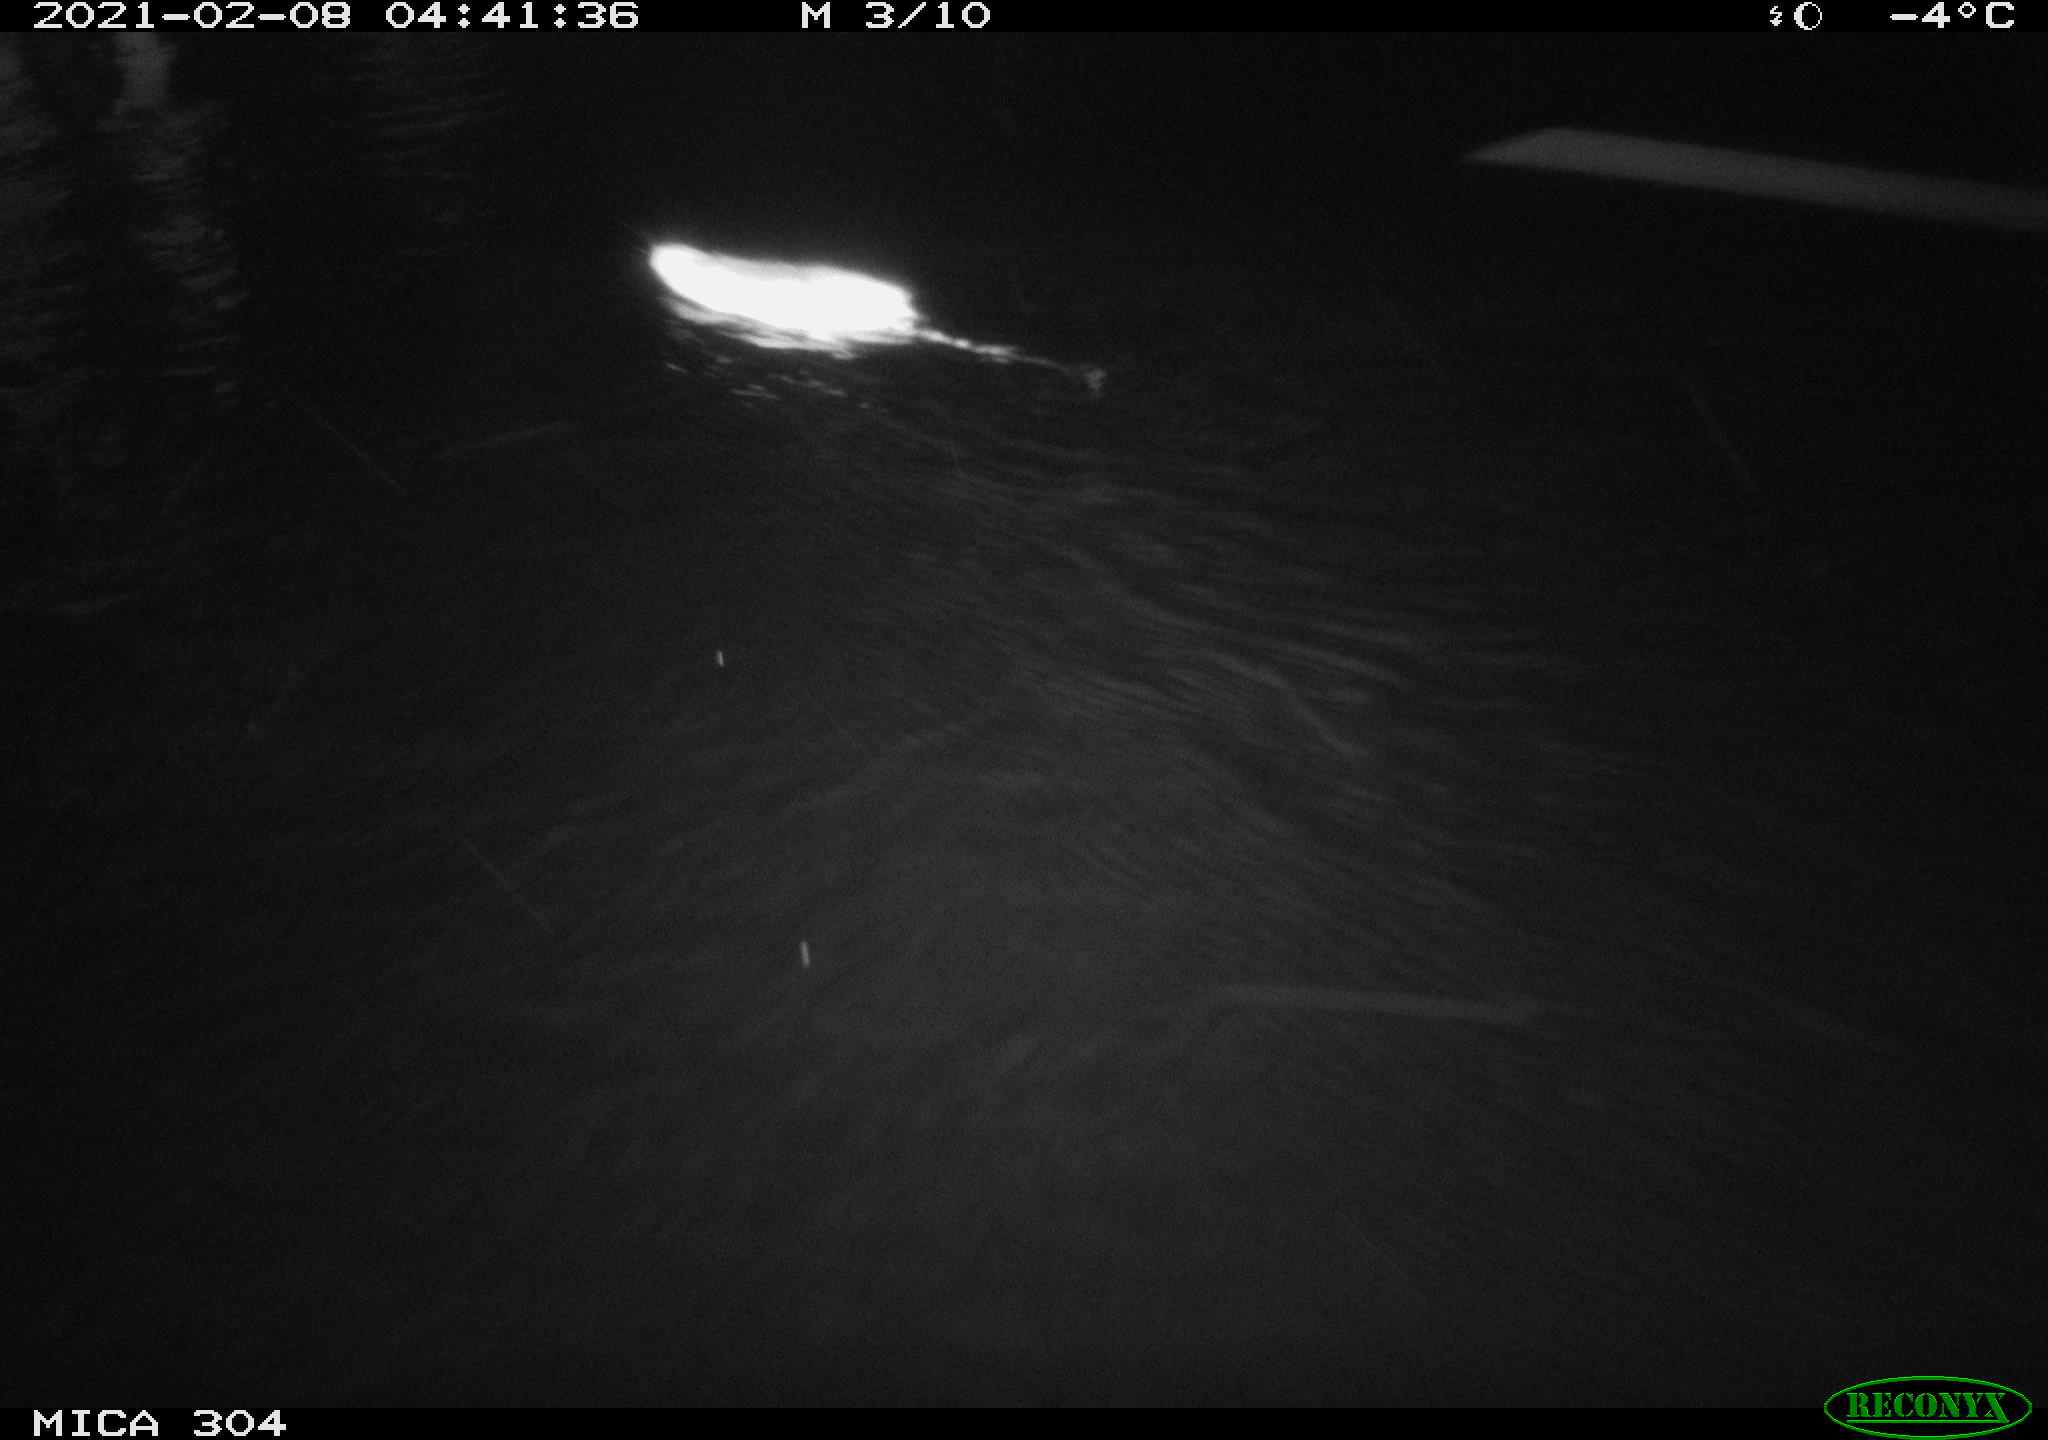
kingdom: Animalia
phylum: Chordata
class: Mammalia
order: Rodentia
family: Muridae
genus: Rattus
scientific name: Rattus norvegicus
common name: Brown rat
